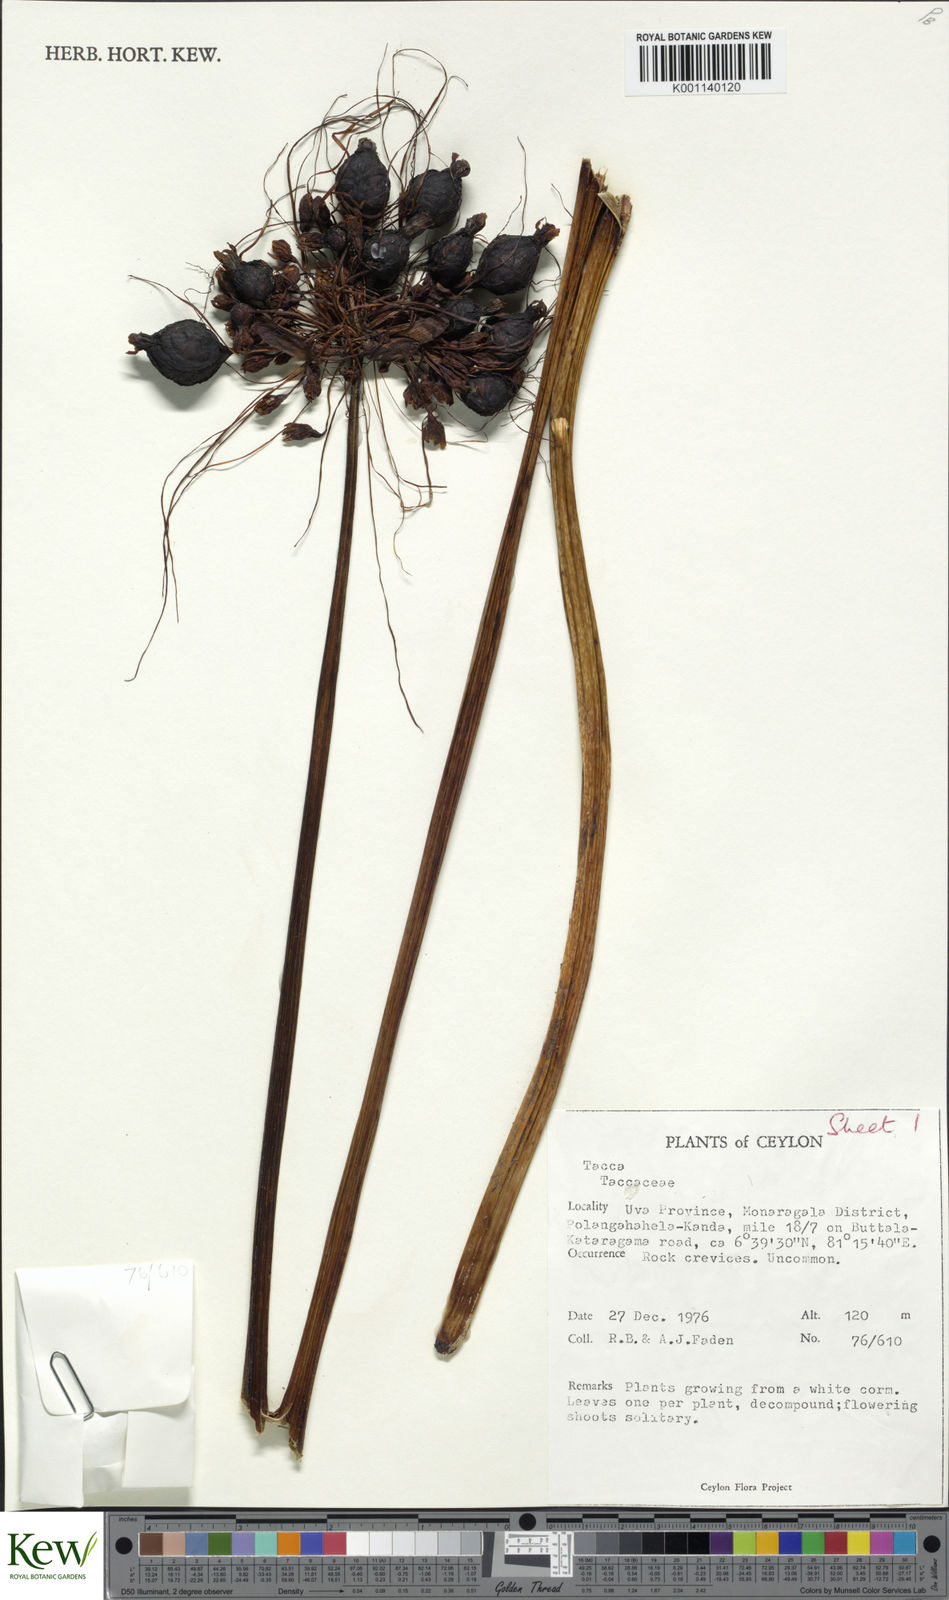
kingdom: Plantae
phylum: Tracheophyta
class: Liliopsida
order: Dioscoreales
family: Dioscoreaceae
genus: Tacca
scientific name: Tacca
